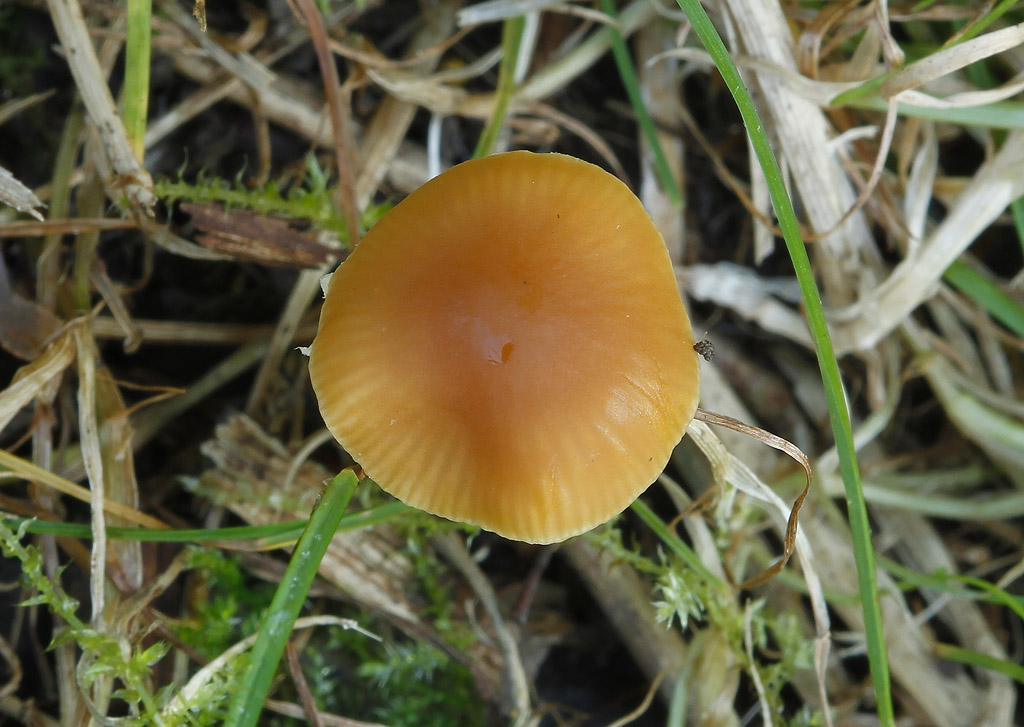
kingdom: Fungi
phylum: Basidiomycota
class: Agaricomycetes
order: Agaricales
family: Bolbitiaceae
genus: Conocybe
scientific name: Conocybe nemoralis
